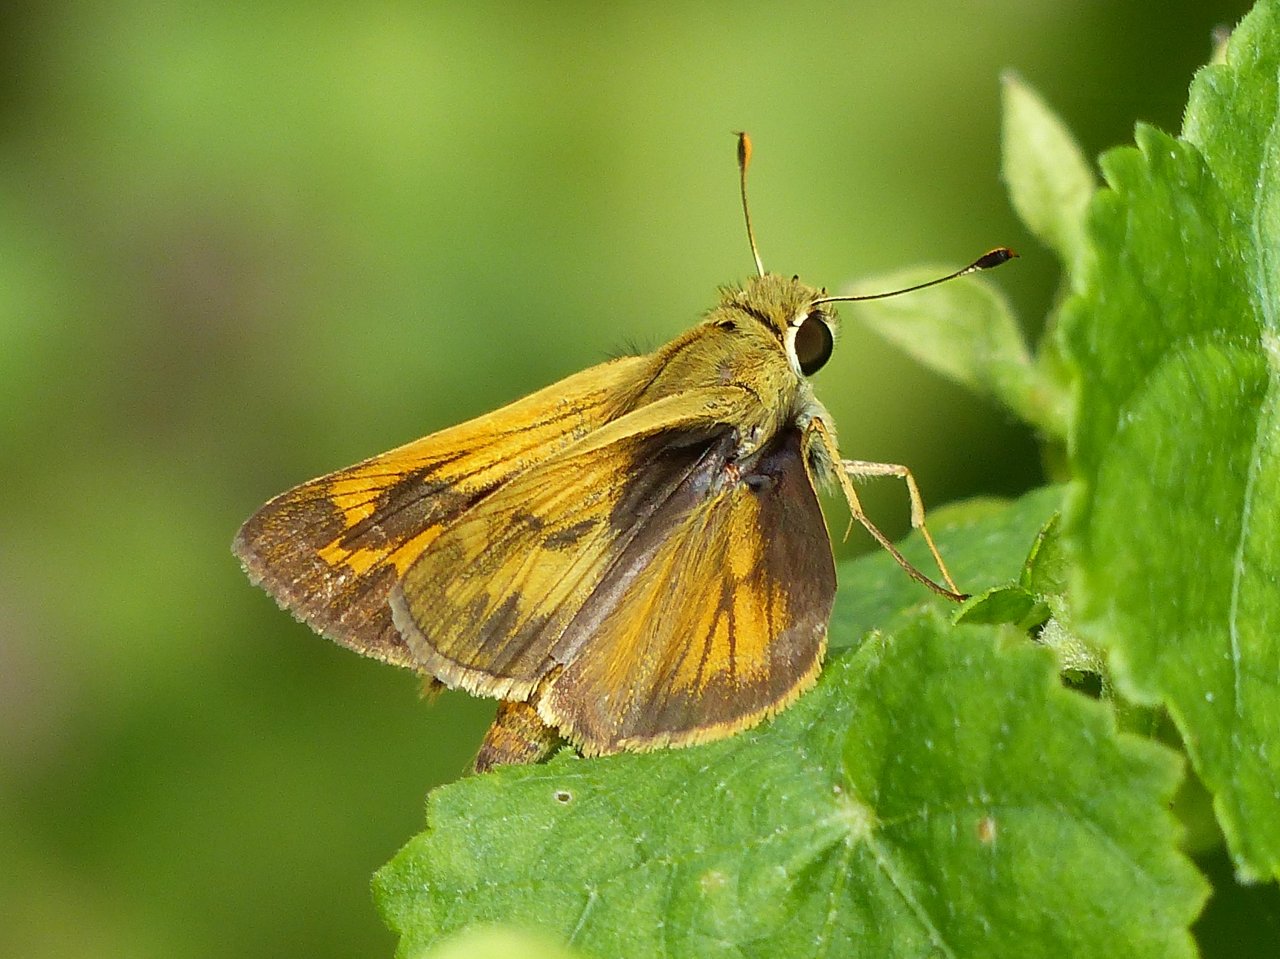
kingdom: Animalia
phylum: Arthropoda
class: Insecta
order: Lepidoptera
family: Hesperiidae
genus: Polites
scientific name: Polites vibex
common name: Whirlabout
